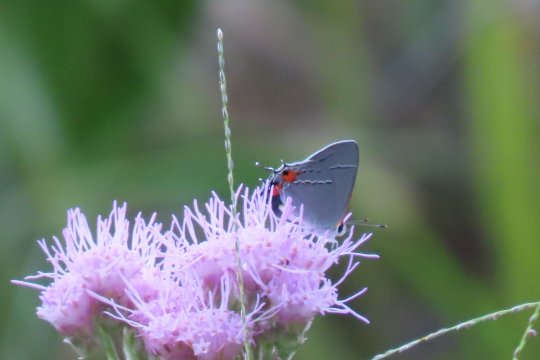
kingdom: Animalia
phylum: Arthropoda
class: Insecta
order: Lepidoptera
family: Lycaenidae
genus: Strymon
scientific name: Strymon melinus
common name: Gray Hairstreak
